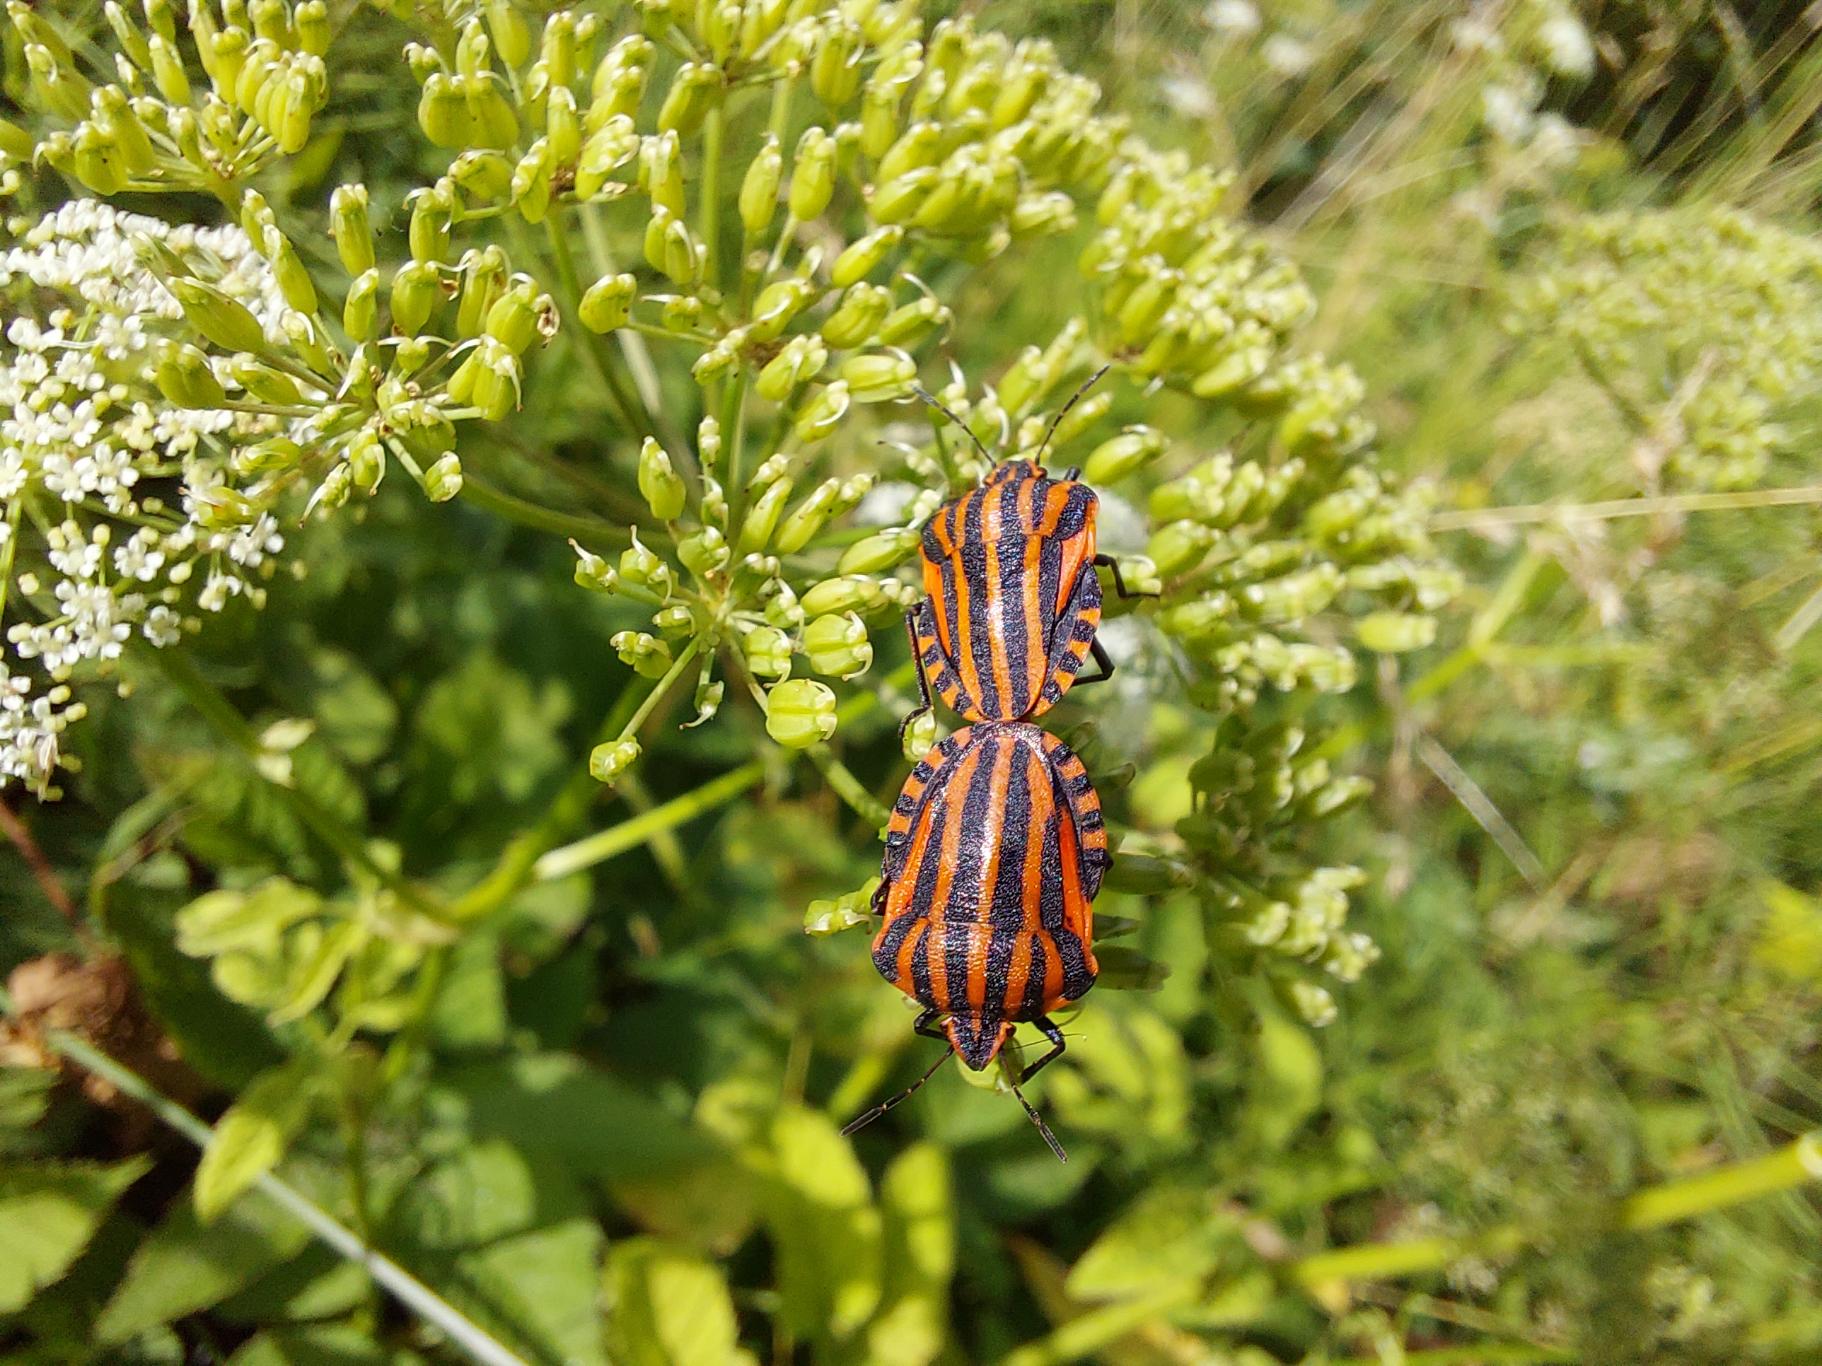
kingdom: Animalia
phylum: Arthropoda
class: Insecta
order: Hemiptera
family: Pentatomidae
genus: Graphosoma
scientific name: Graphosoma italicum
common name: Stribetæge
